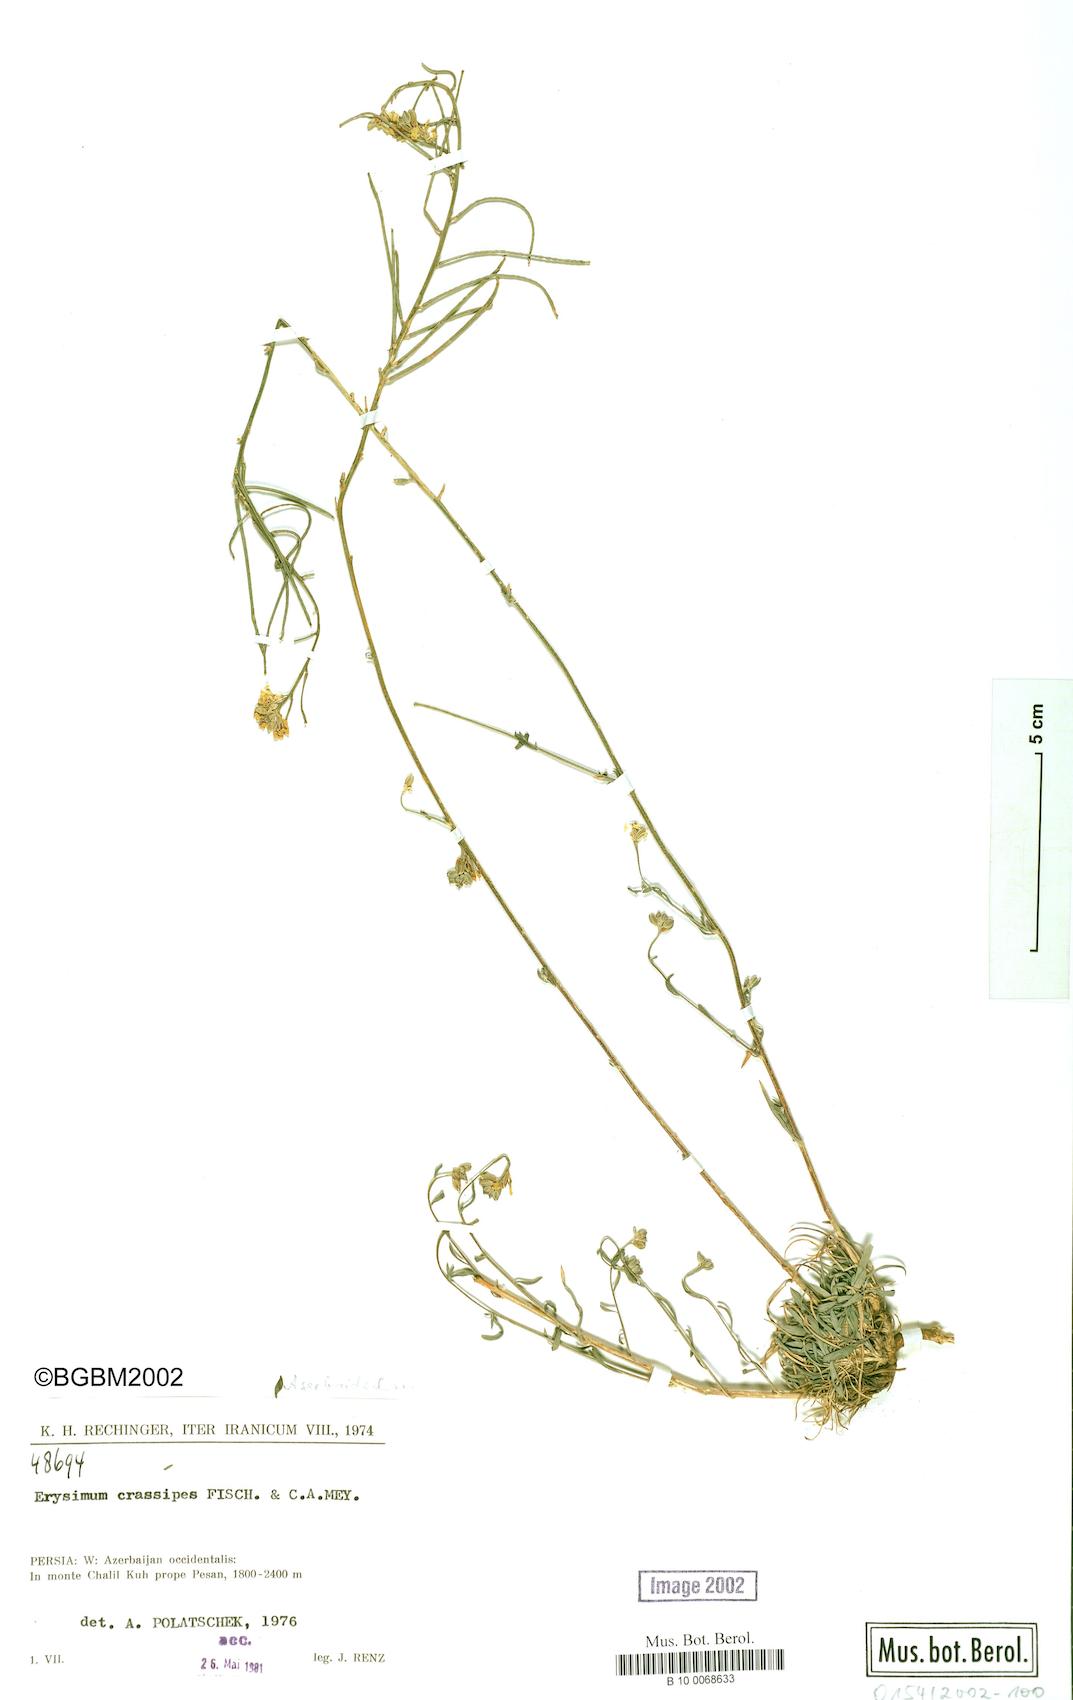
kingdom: Plantae
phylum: Tracheophyta
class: Magnoliopsida
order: Brassicales
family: Brassicaceae
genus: Erysimum
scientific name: Erysimum crassipes
